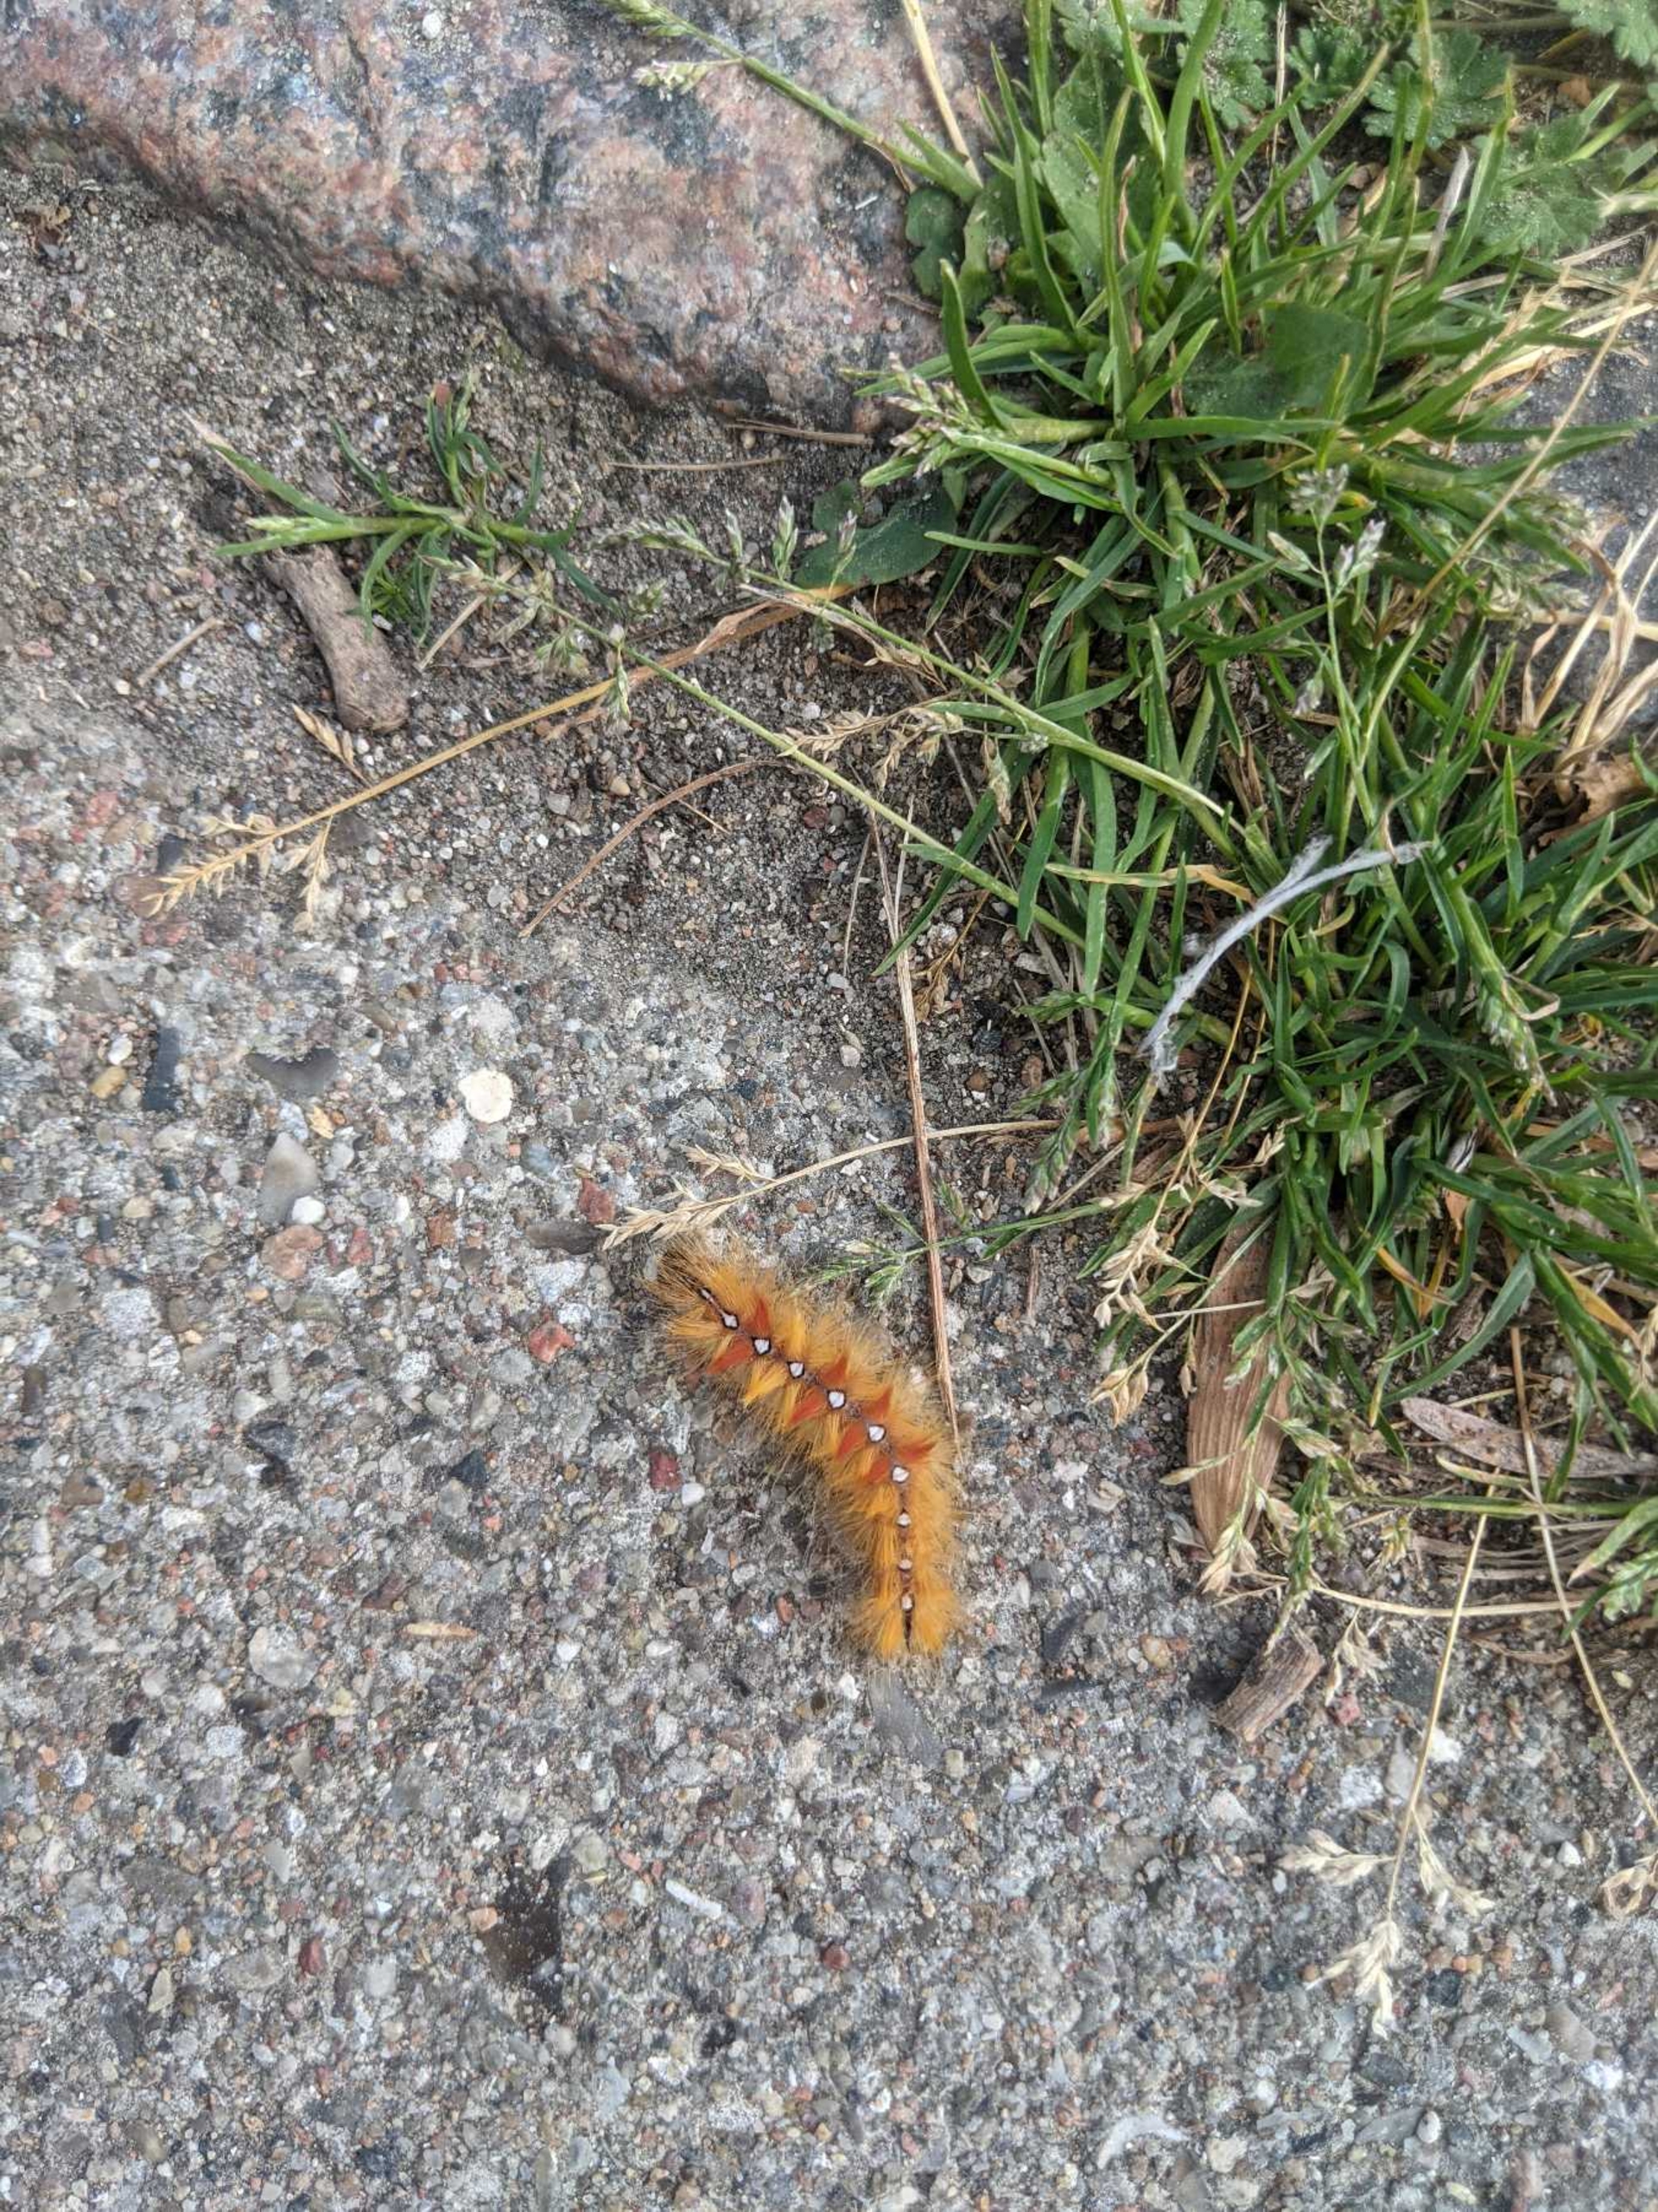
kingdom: Animalia
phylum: Arthropoda
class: Insecta
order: Lepidoptera
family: Noctuidae
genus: Acronicta
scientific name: Acronicta aceris
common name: Ahornugle
